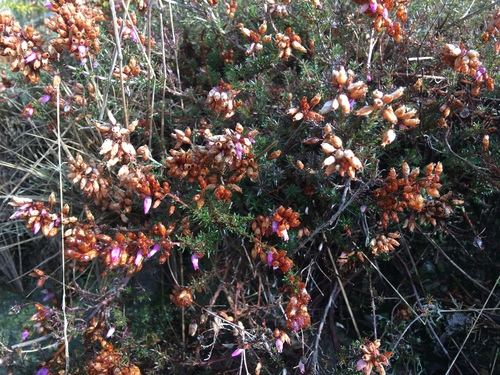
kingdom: Plantae
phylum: Tracheophyta
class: Magnoliopsida
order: Ericales
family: Ericaceae
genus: Erica
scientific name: Erica cinerea
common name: Bell heather
